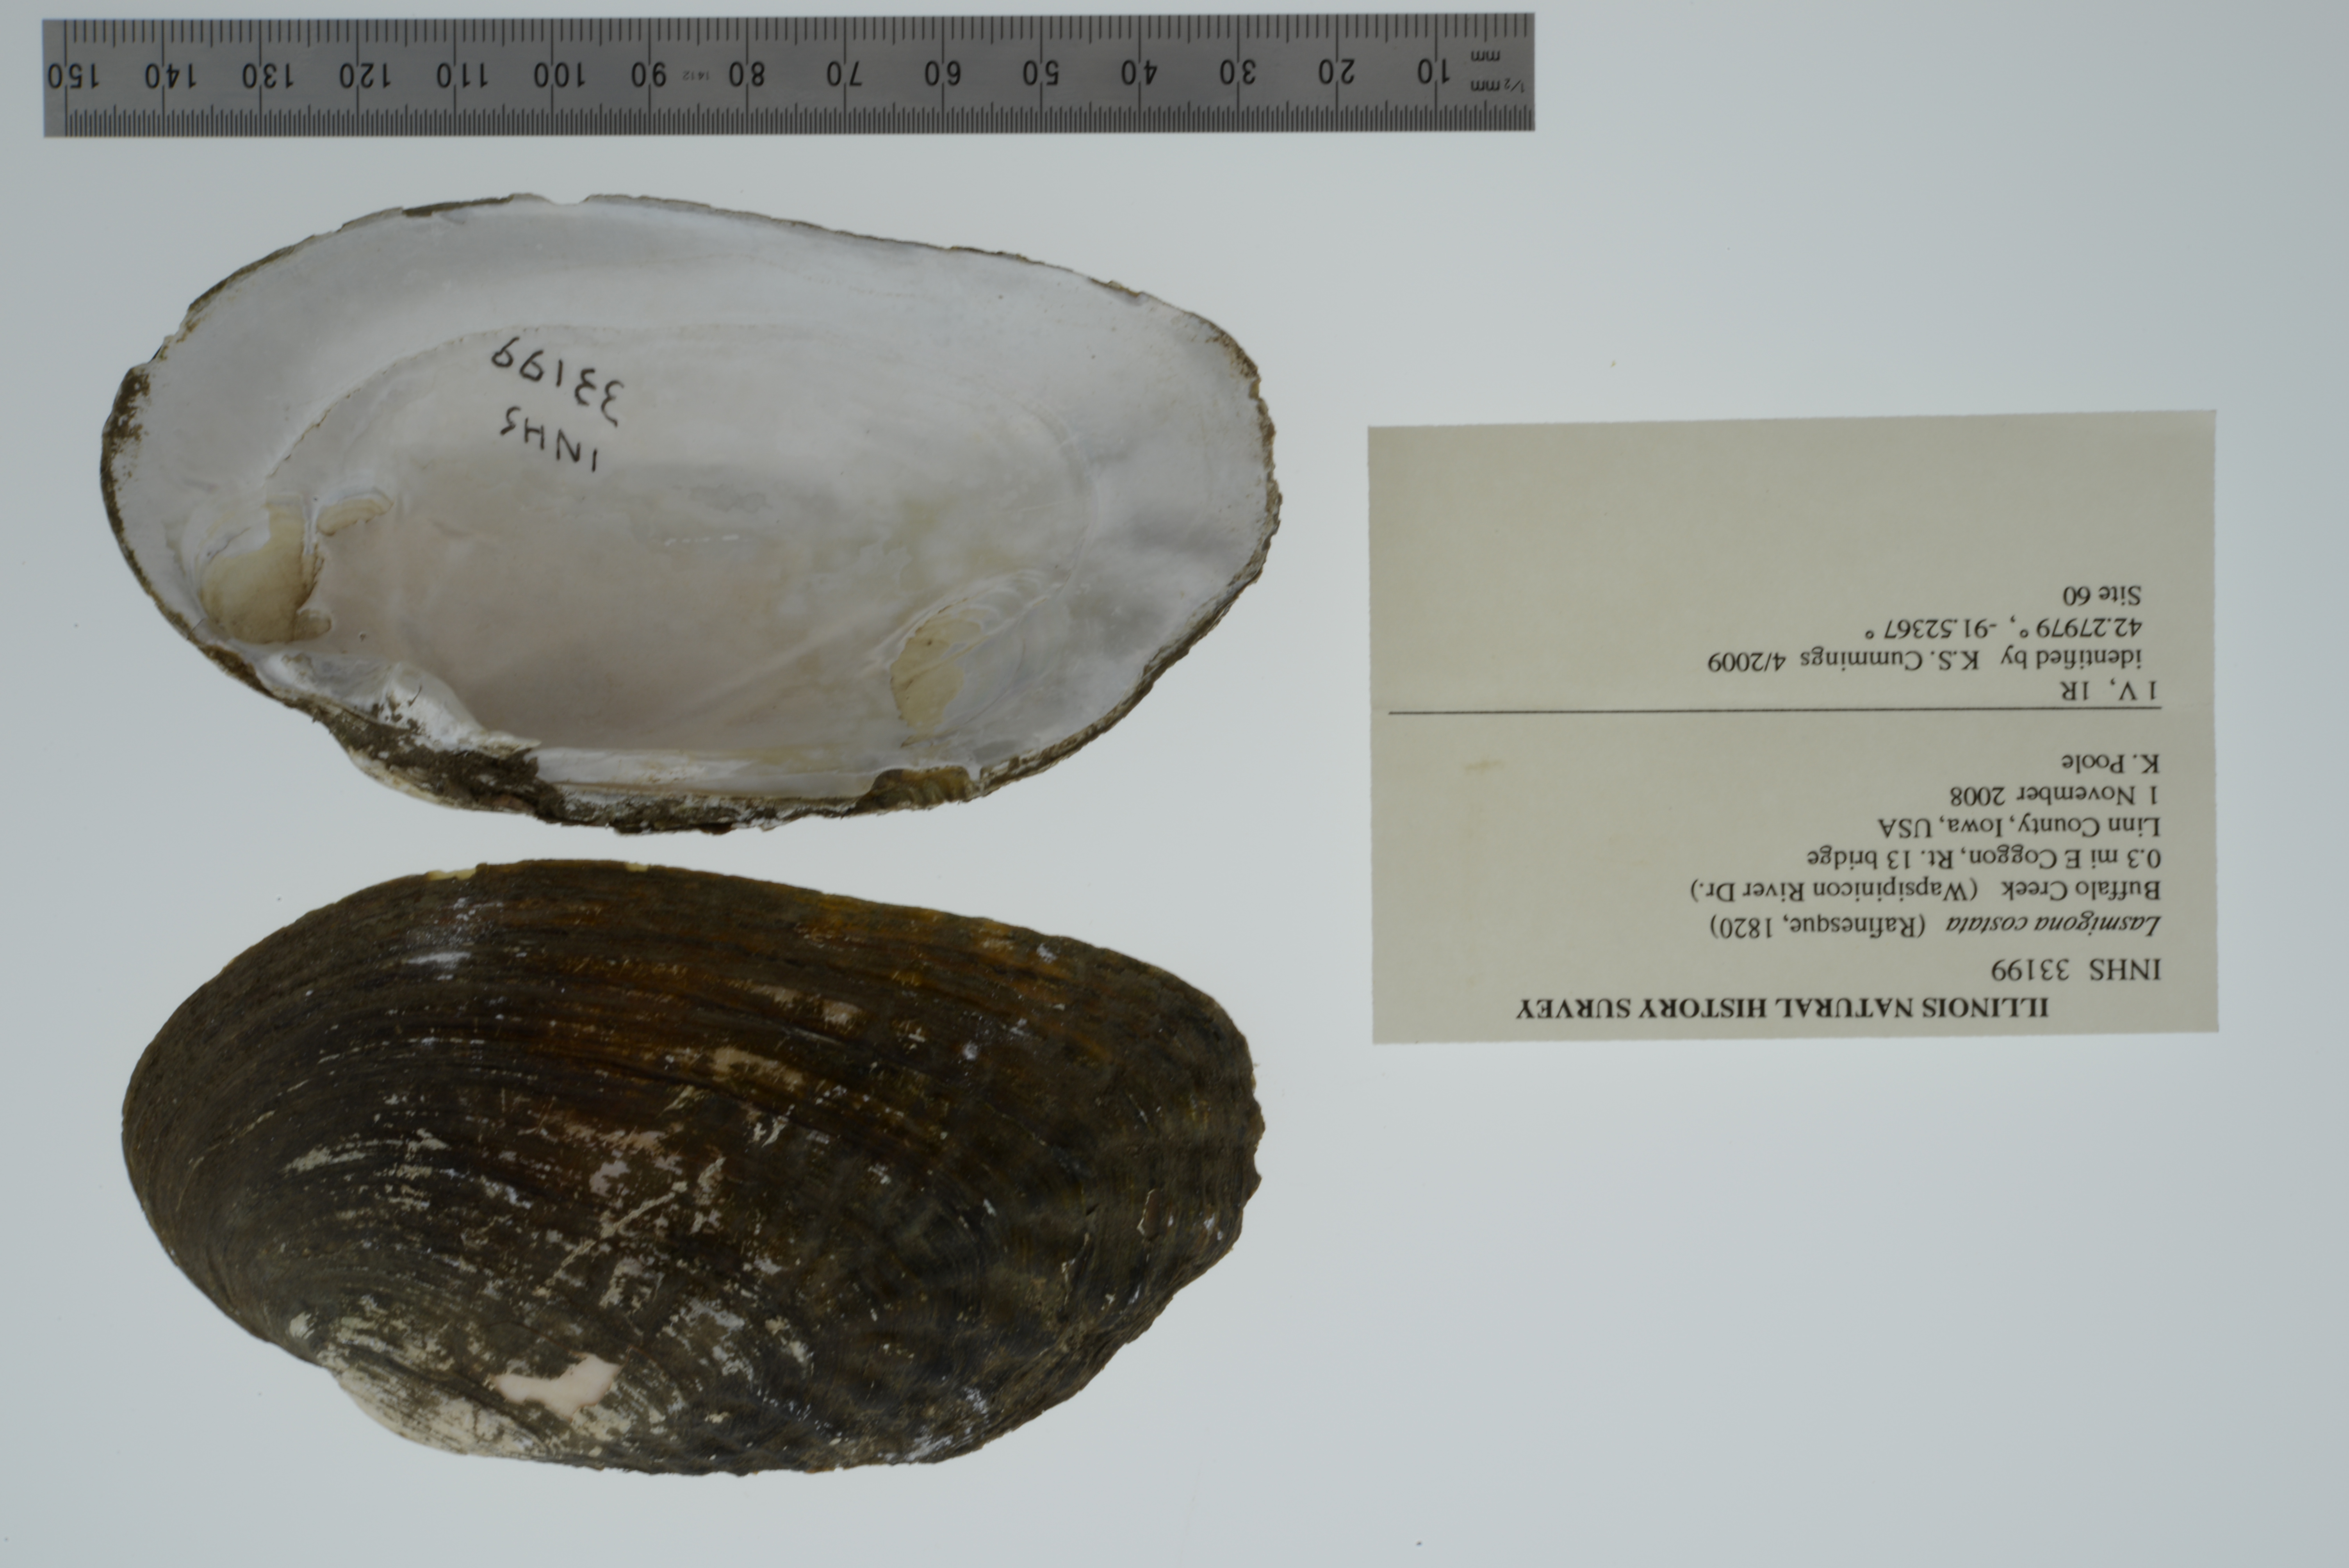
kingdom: Animalia
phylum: Mollusca
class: Bivalvia
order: Unionida
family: Unionidae
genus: Lasmigona
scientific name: Lasmigona costata
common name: Flutedshell
